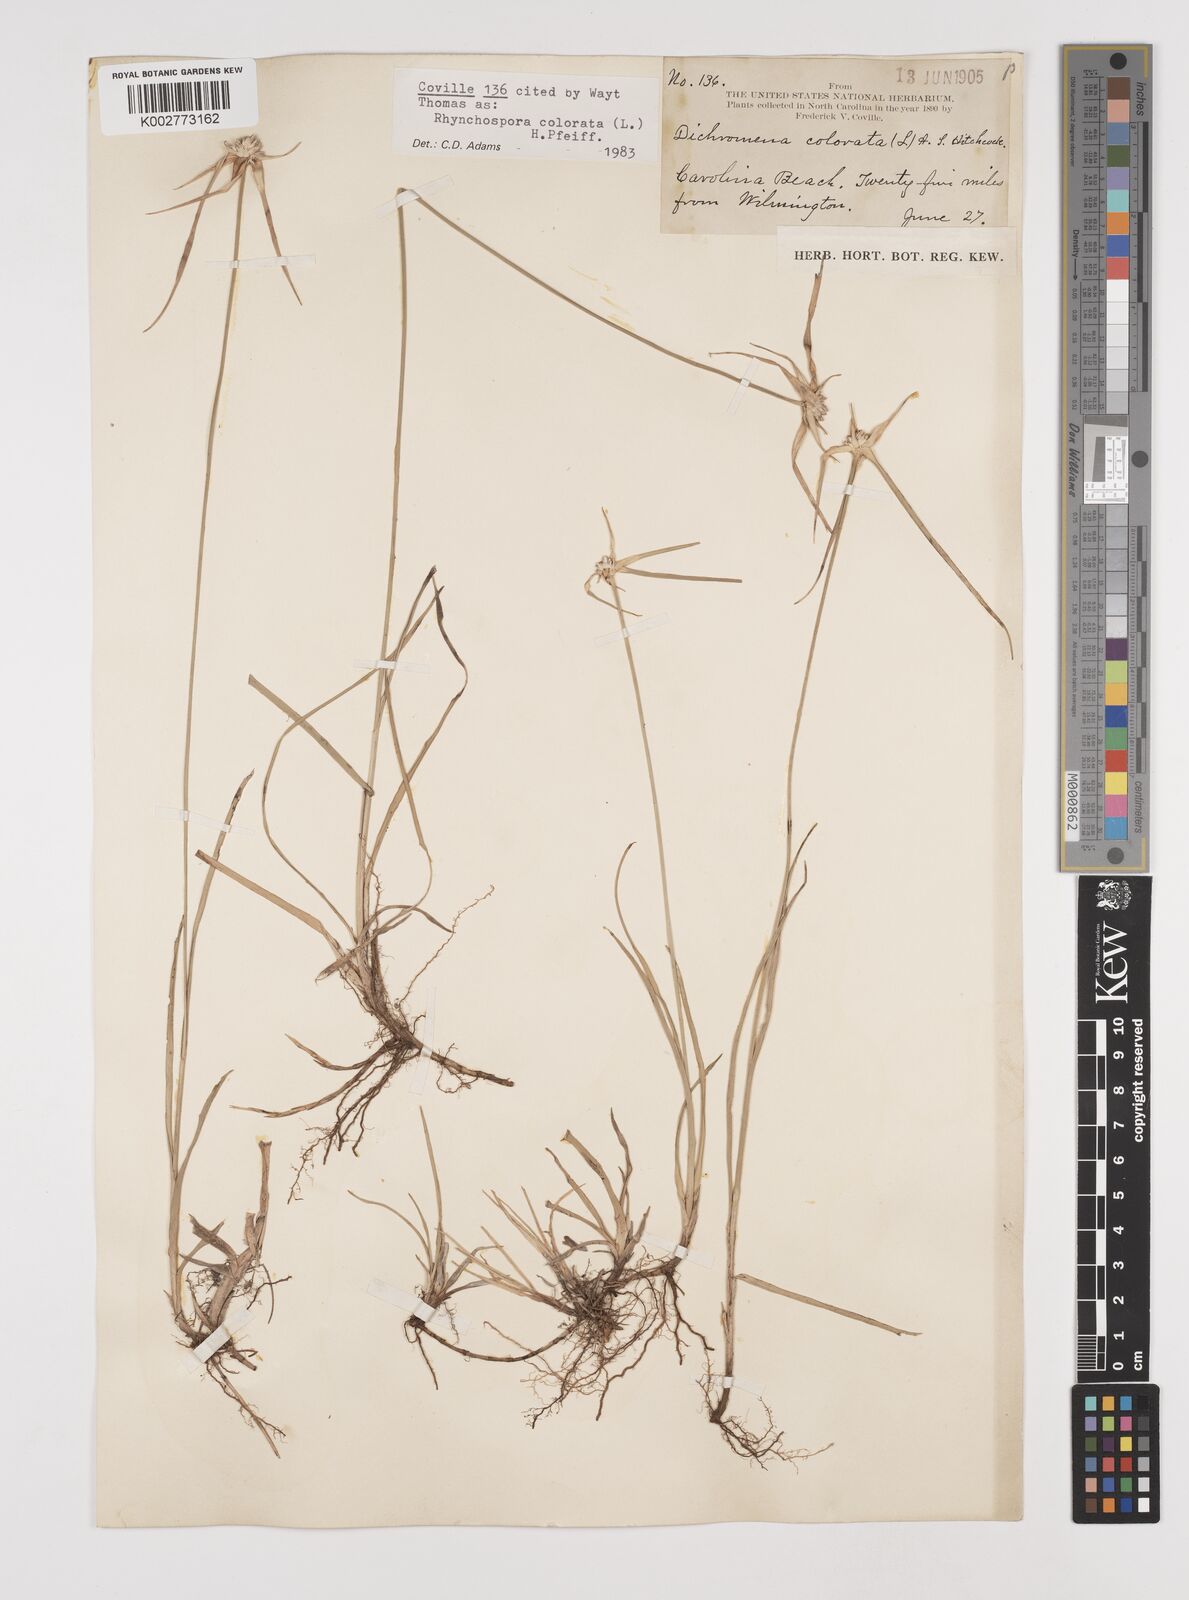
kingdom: Plantae
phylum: Tracheophyta
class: Liliopsida
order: Poales
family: Cyperaceae
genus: Rhynchospora
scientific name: Rhynchospora colorata
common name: Star sedge
